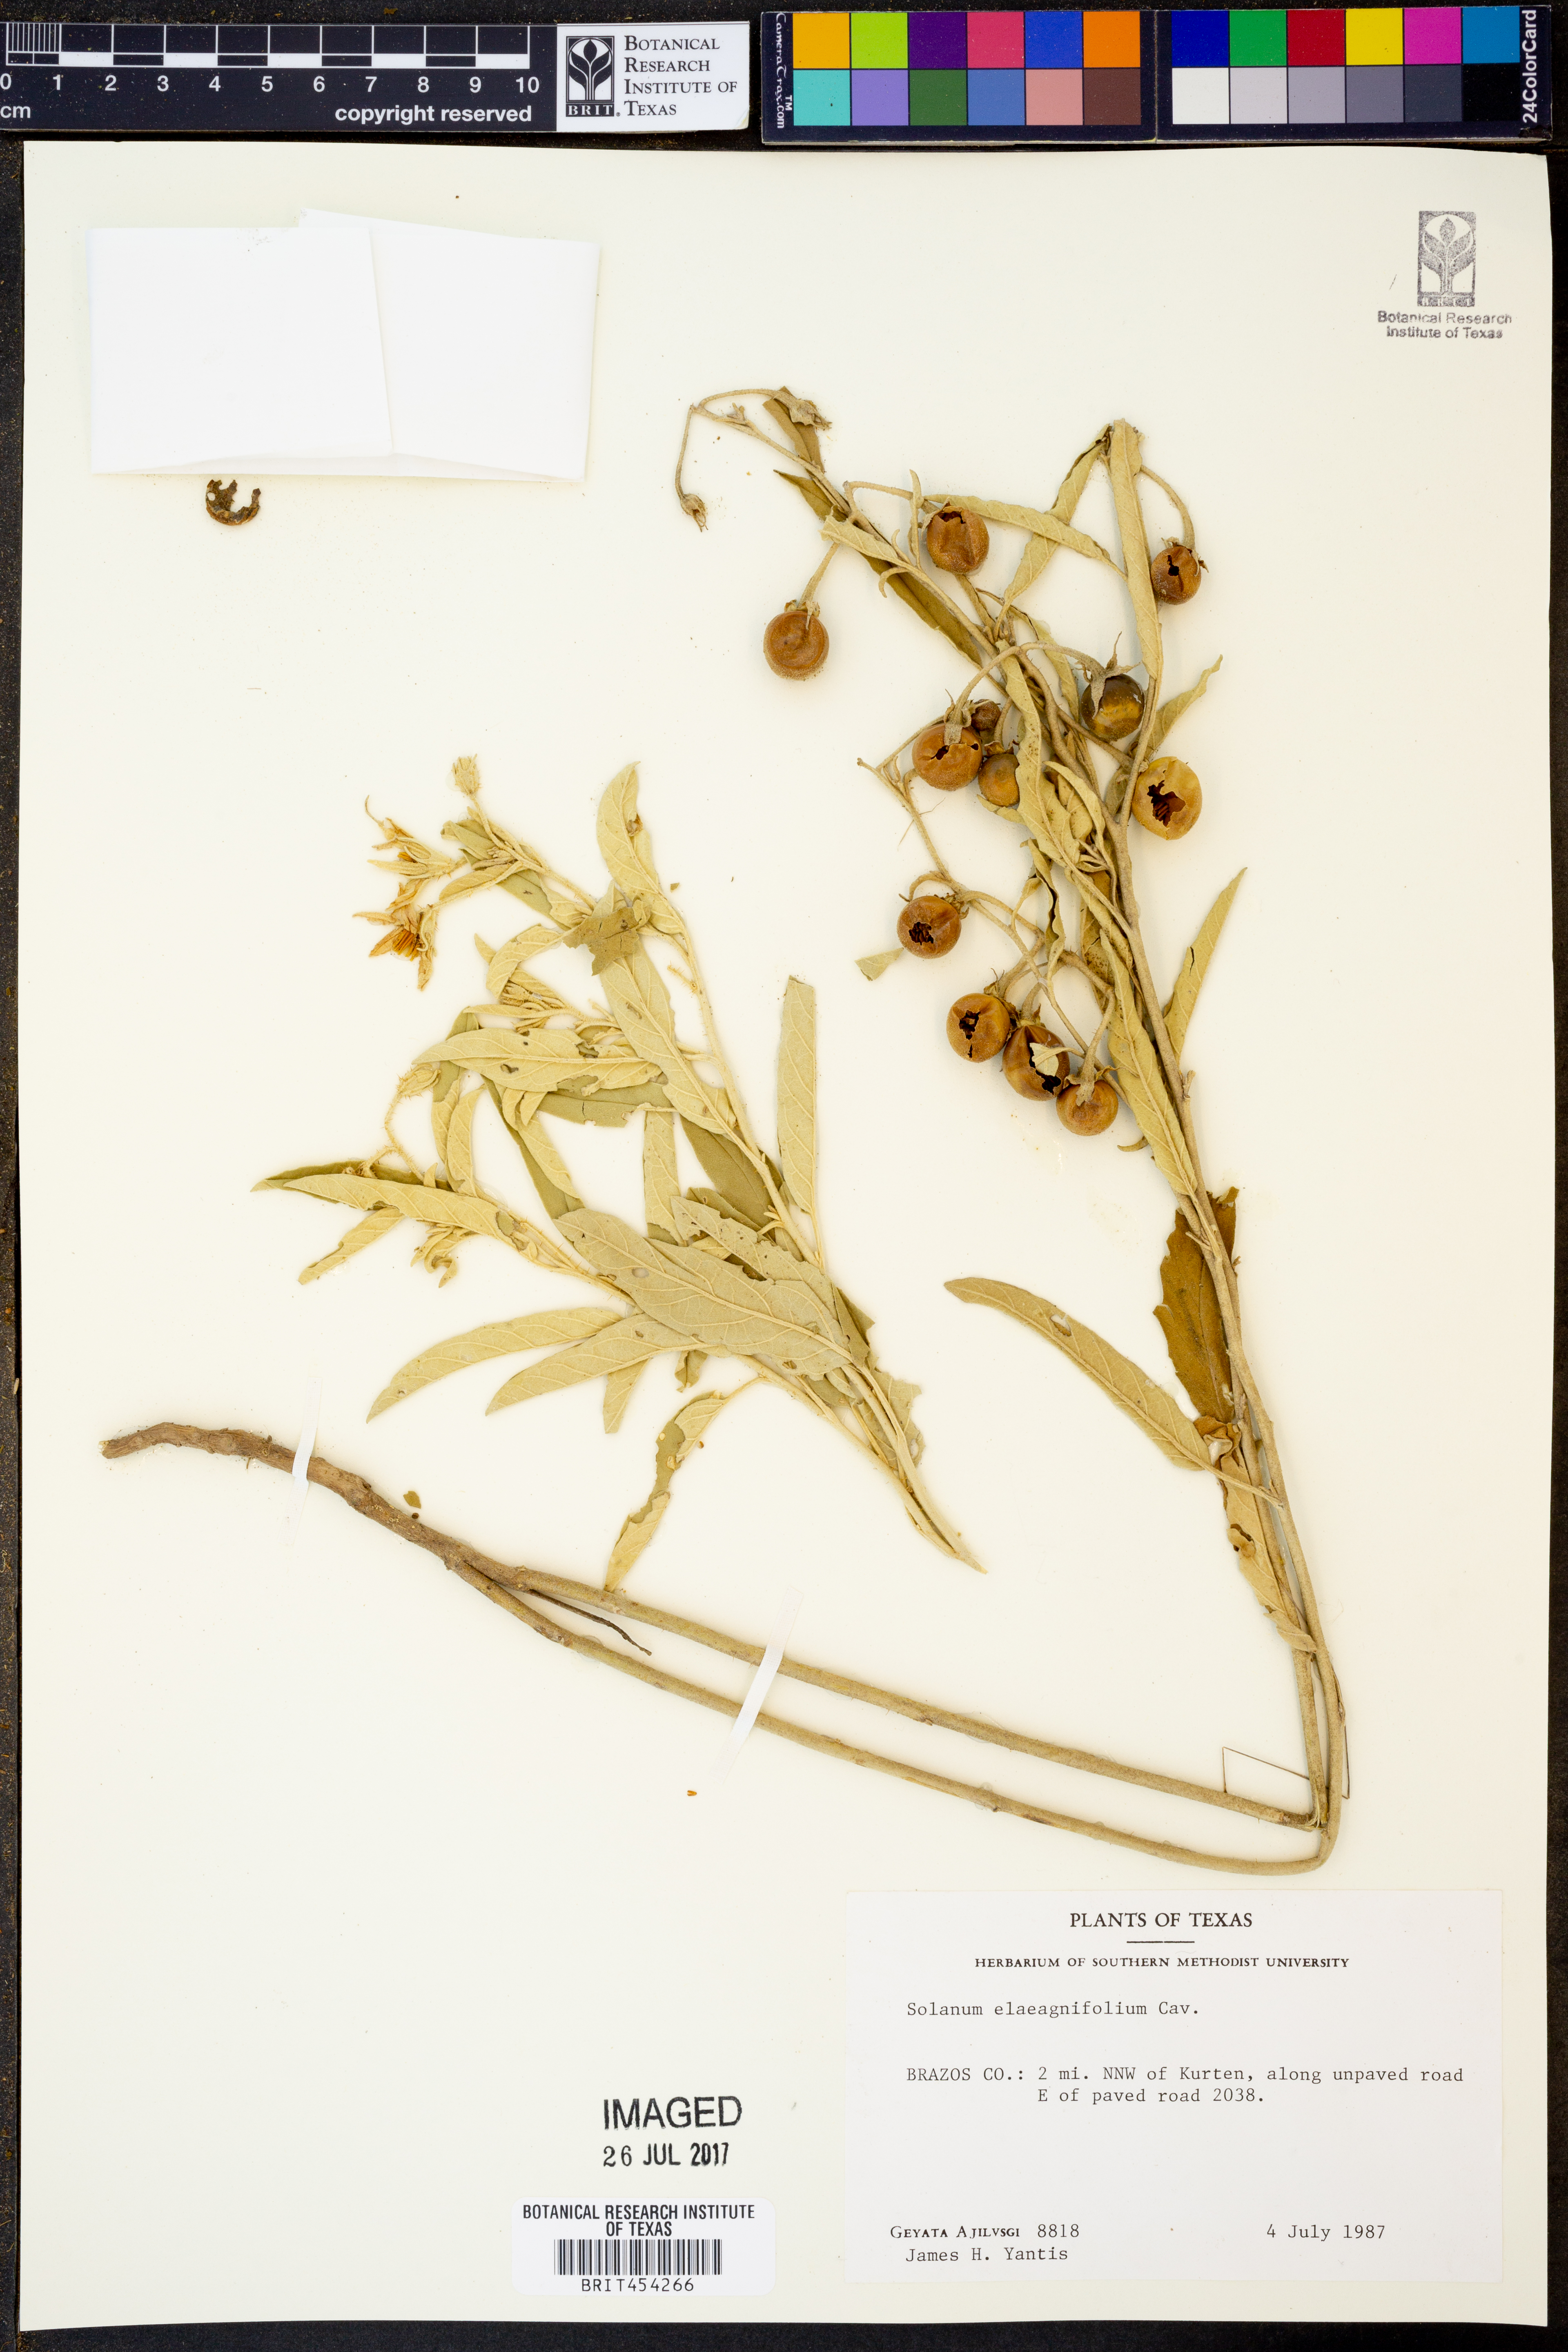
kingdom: Plantae
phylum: Tracheophyta
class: Magnoliopsida
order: Solanales
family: Solanaceae
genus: Solanum
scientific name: Solanum elaeagnifolium
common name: Silverleaf nightshade
